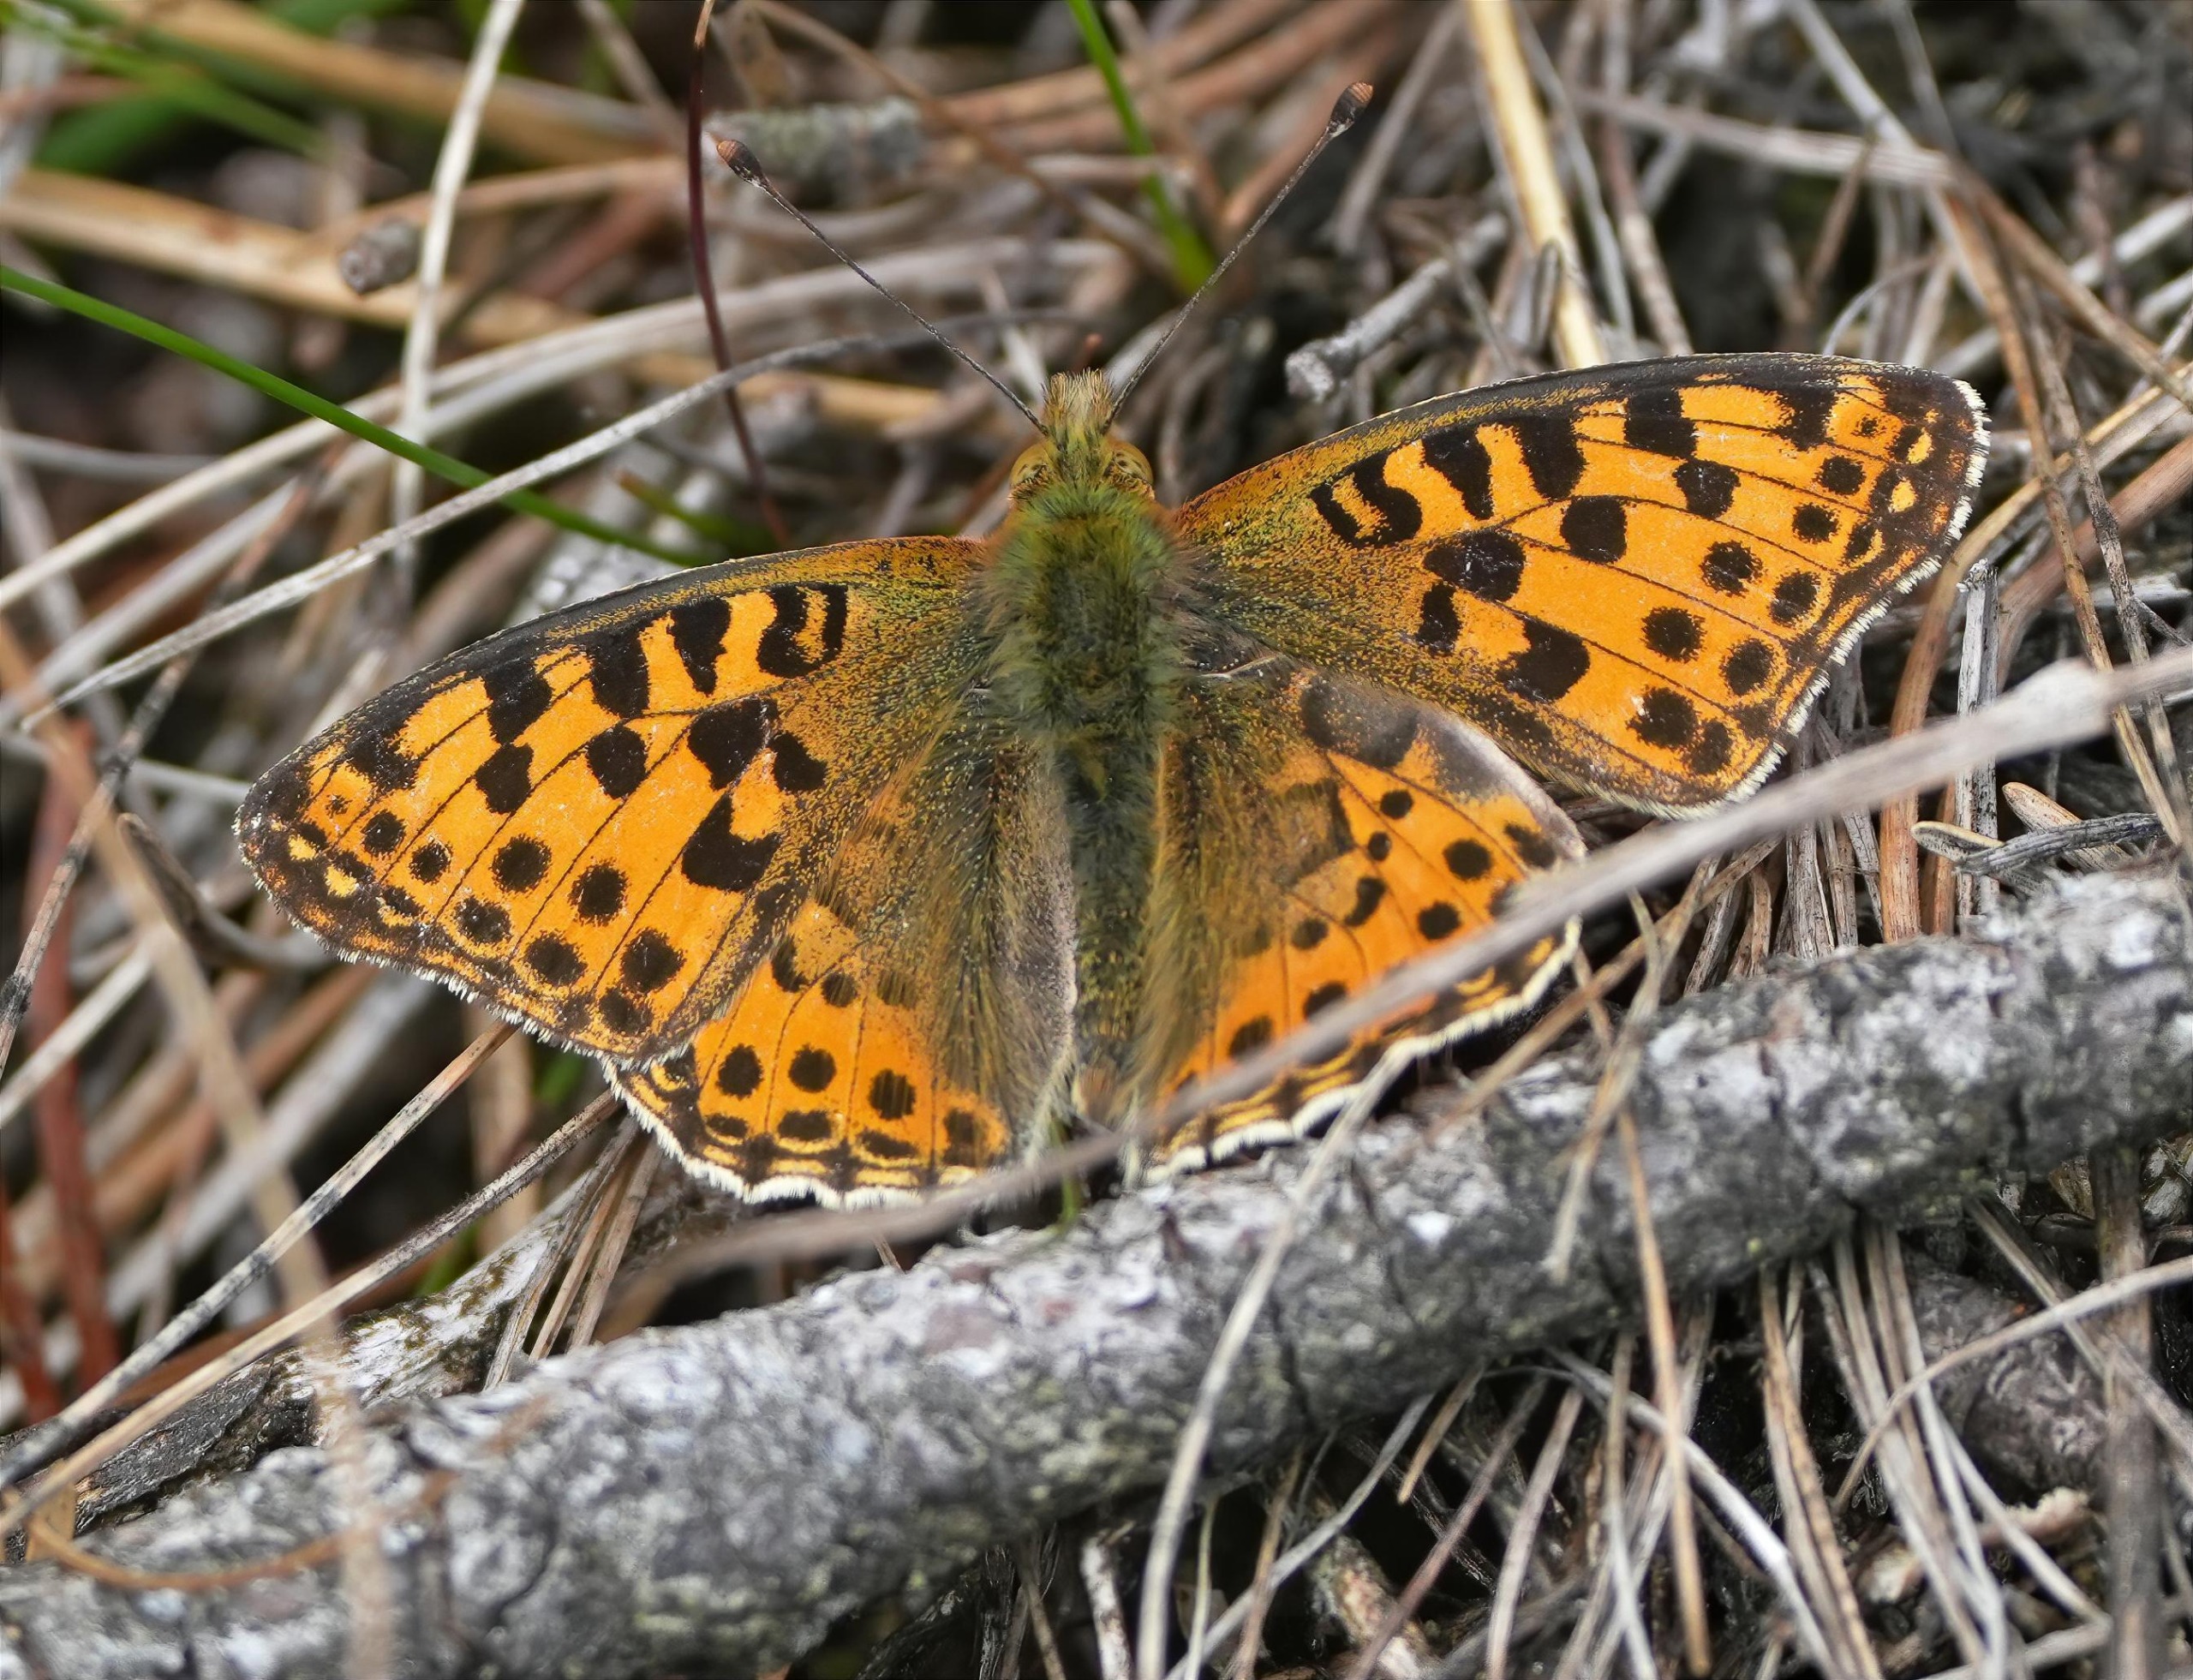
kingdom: Animalia
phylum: Arthropoda
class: Insecta
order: Lepidoptera
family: Nymphalidae
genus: Issoria
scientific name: Issoria lathonia
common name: Storplettet perlemorsommerfugl
